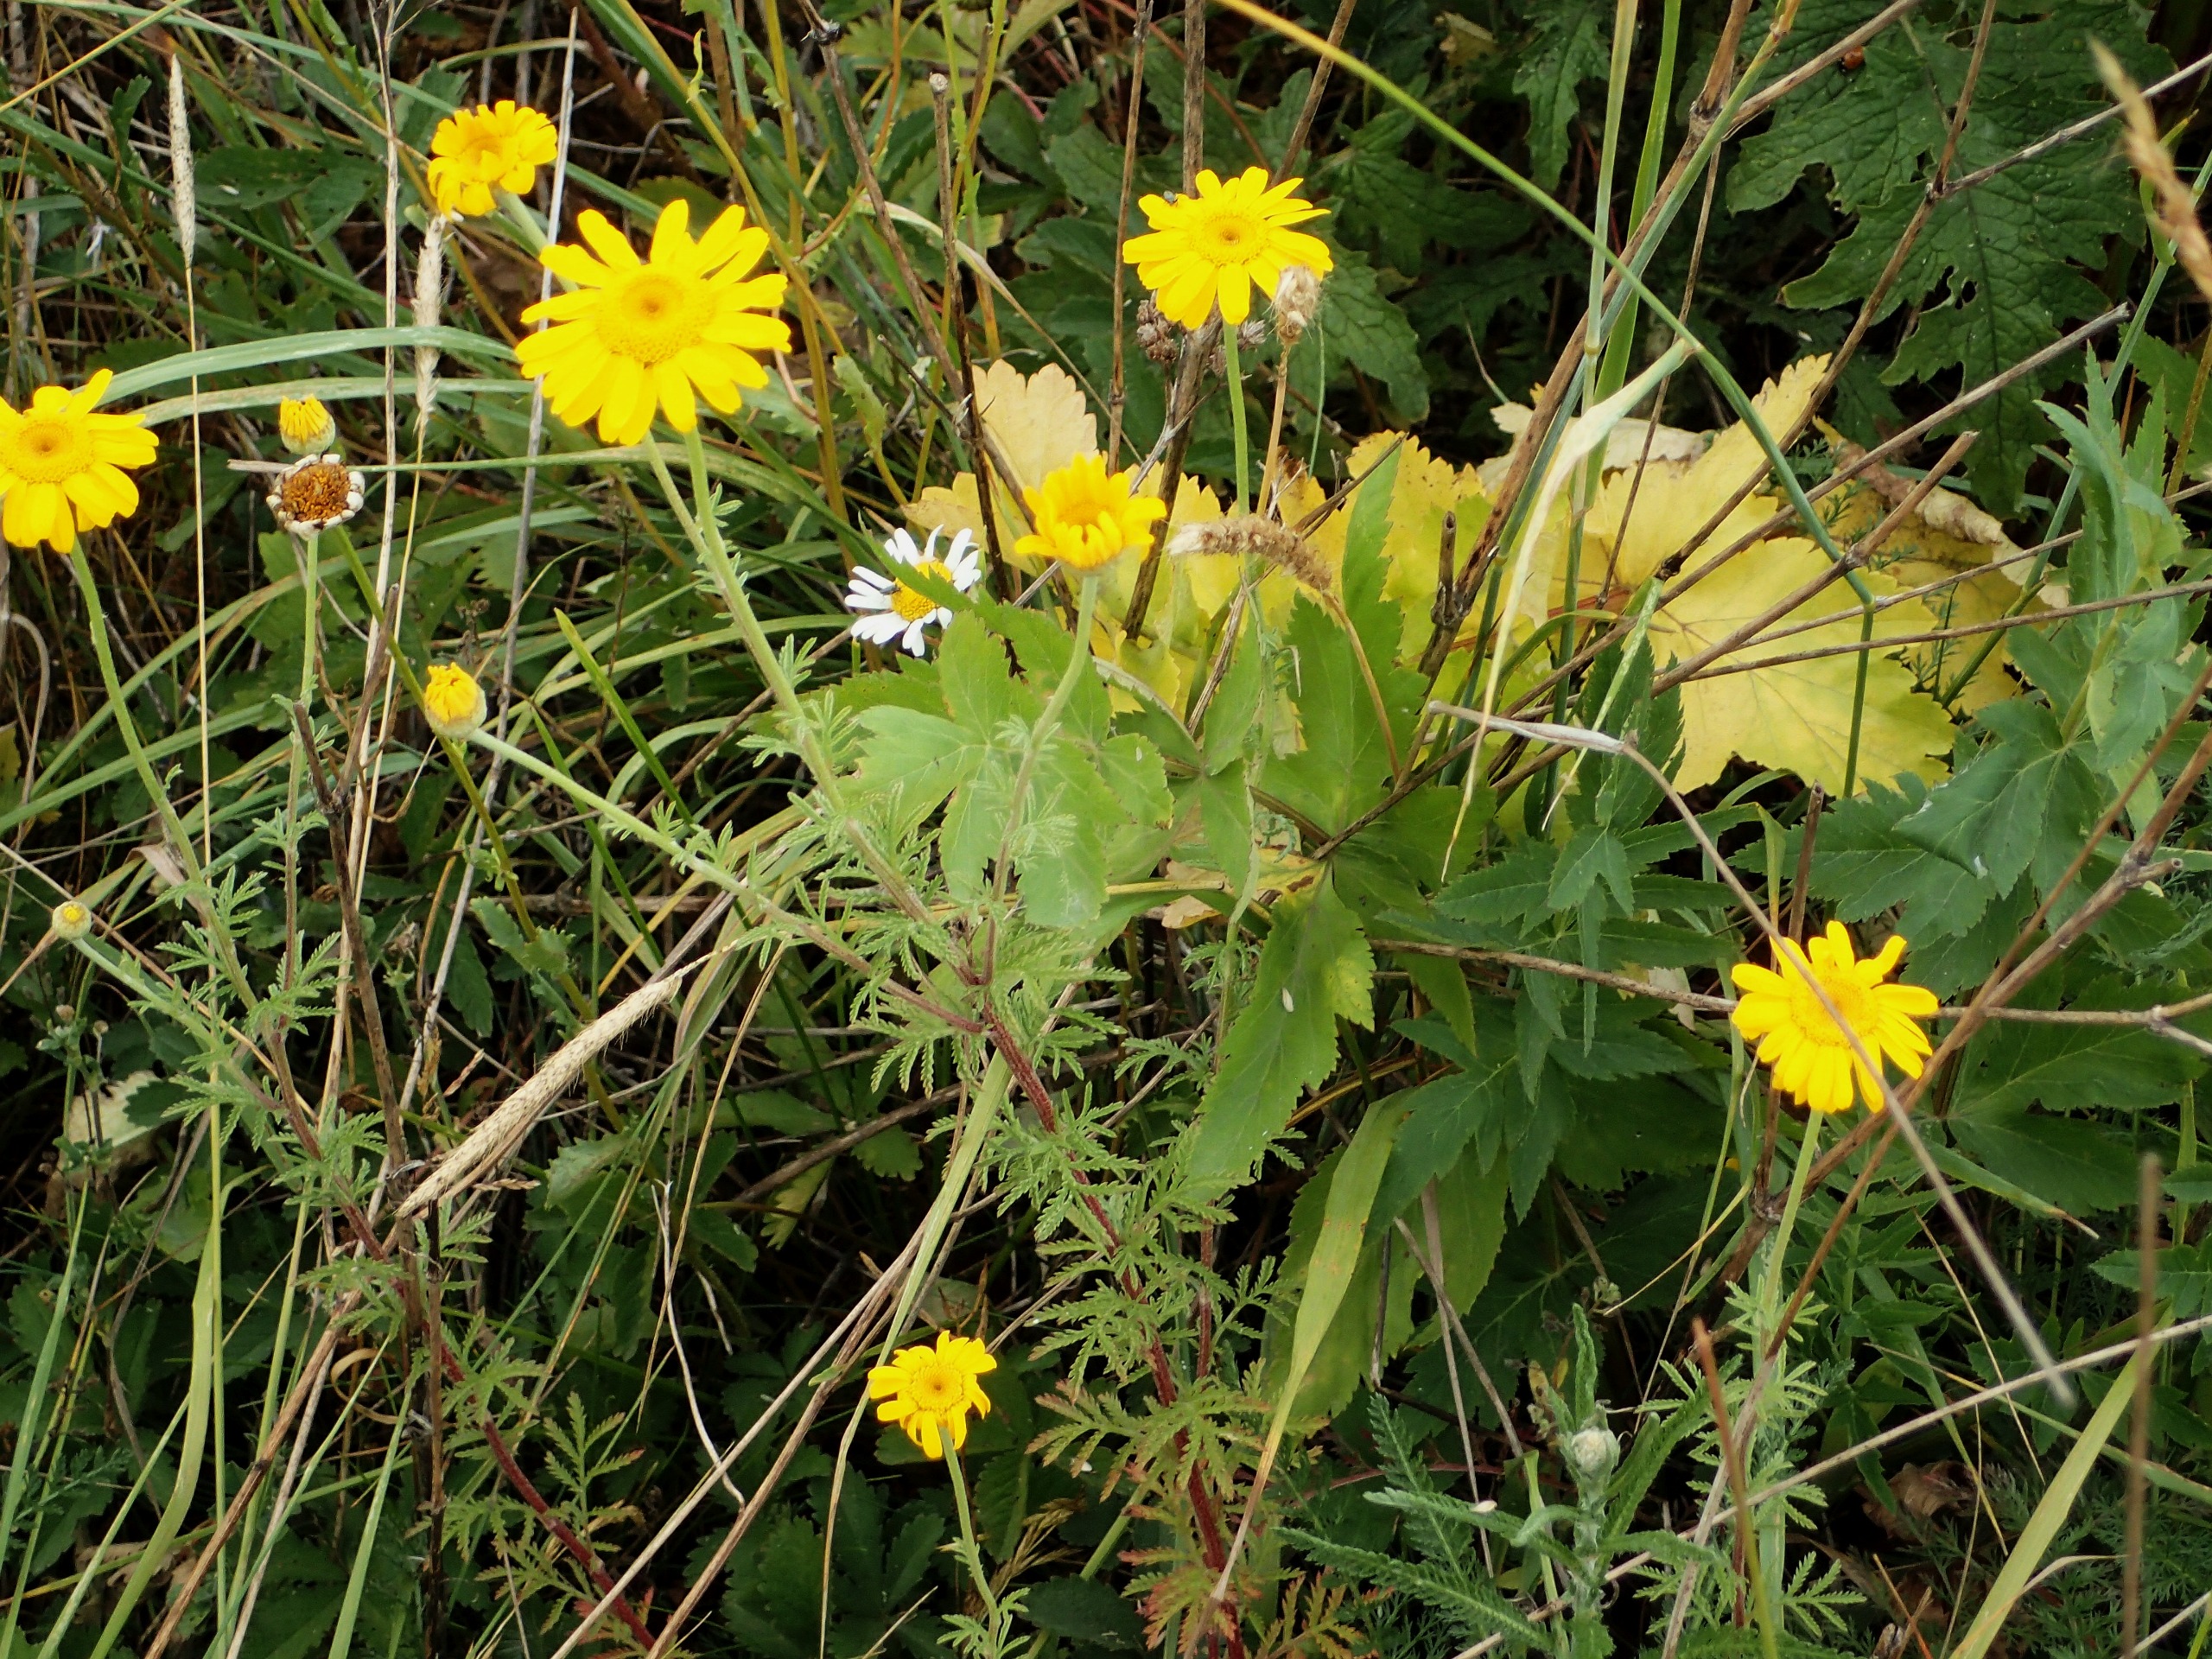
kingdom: Plantae
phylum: Tracheophyta
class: Magnoliopsida
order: Asterales
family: Asteraceae
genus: Cota
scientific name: Cota tinctoria
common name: Farve-gåseurt
